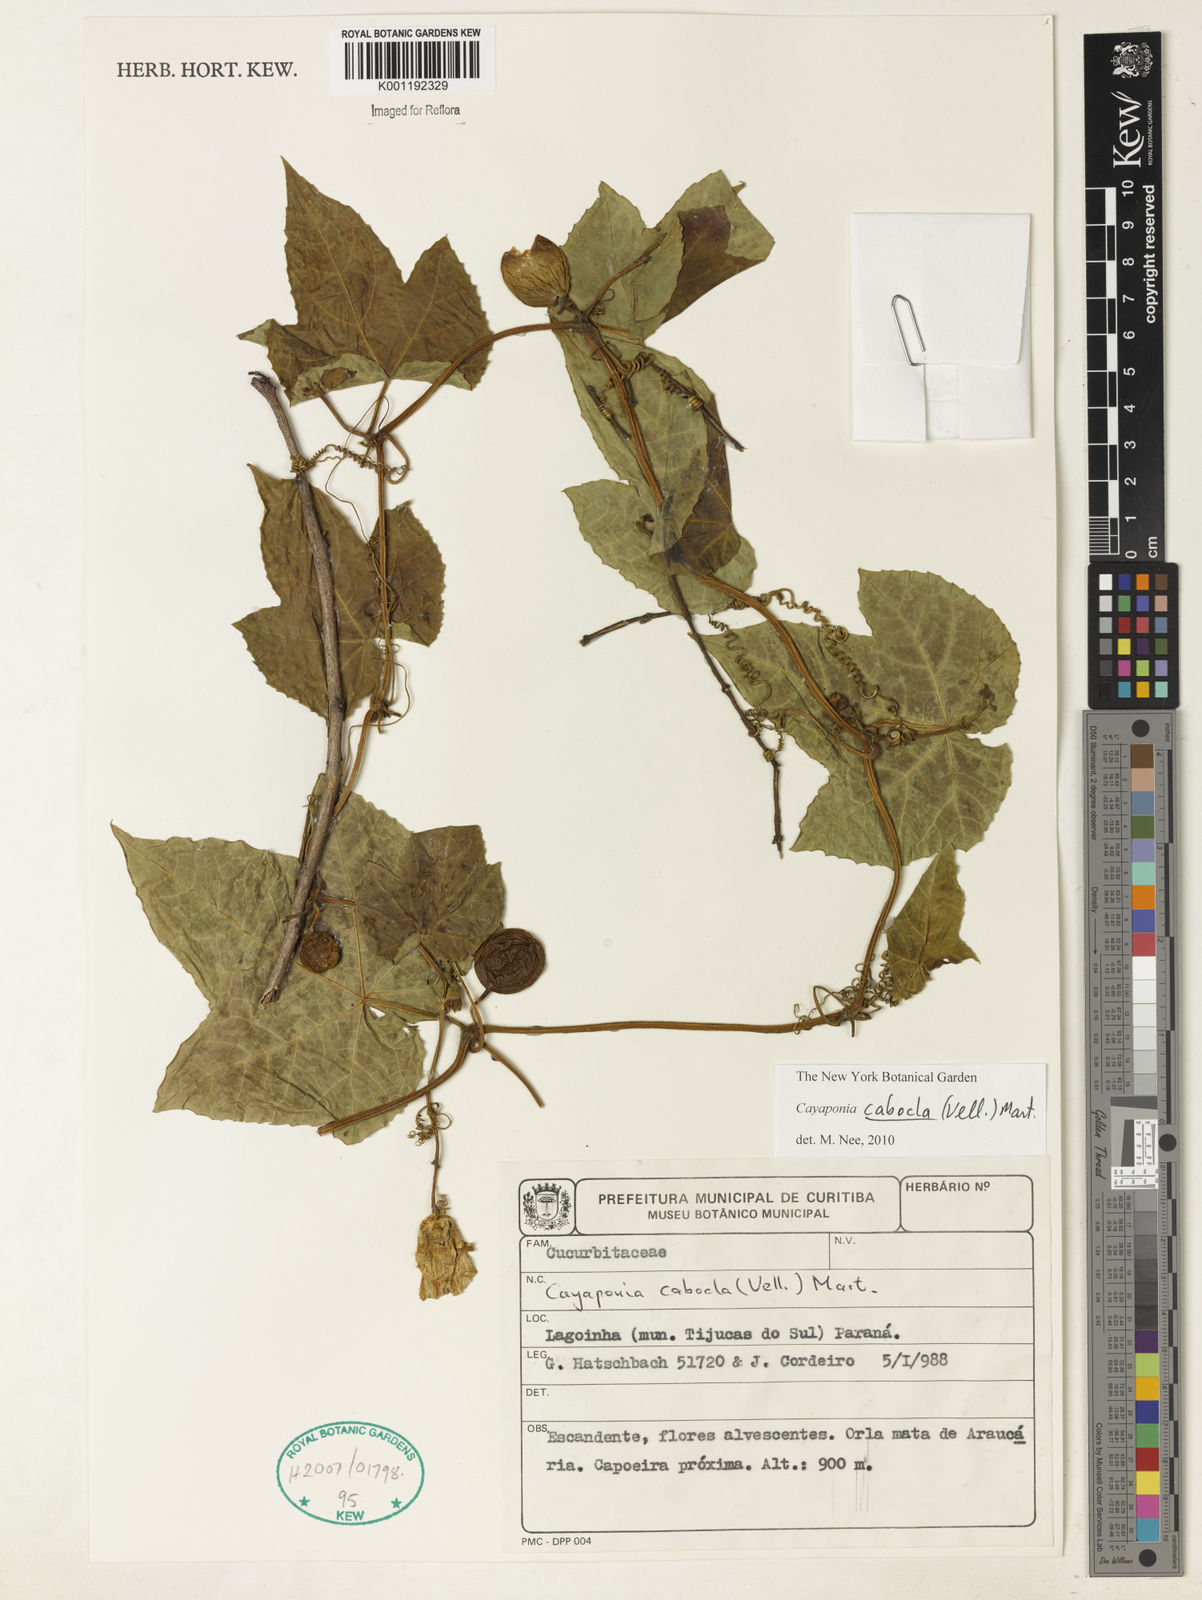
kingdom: Plantae
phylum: Tracheophyta
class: Magnoliopsida
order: Cucurbitales
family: Cucurbitaceae
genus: Cayaponia
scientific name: Cayaponia cabocla
